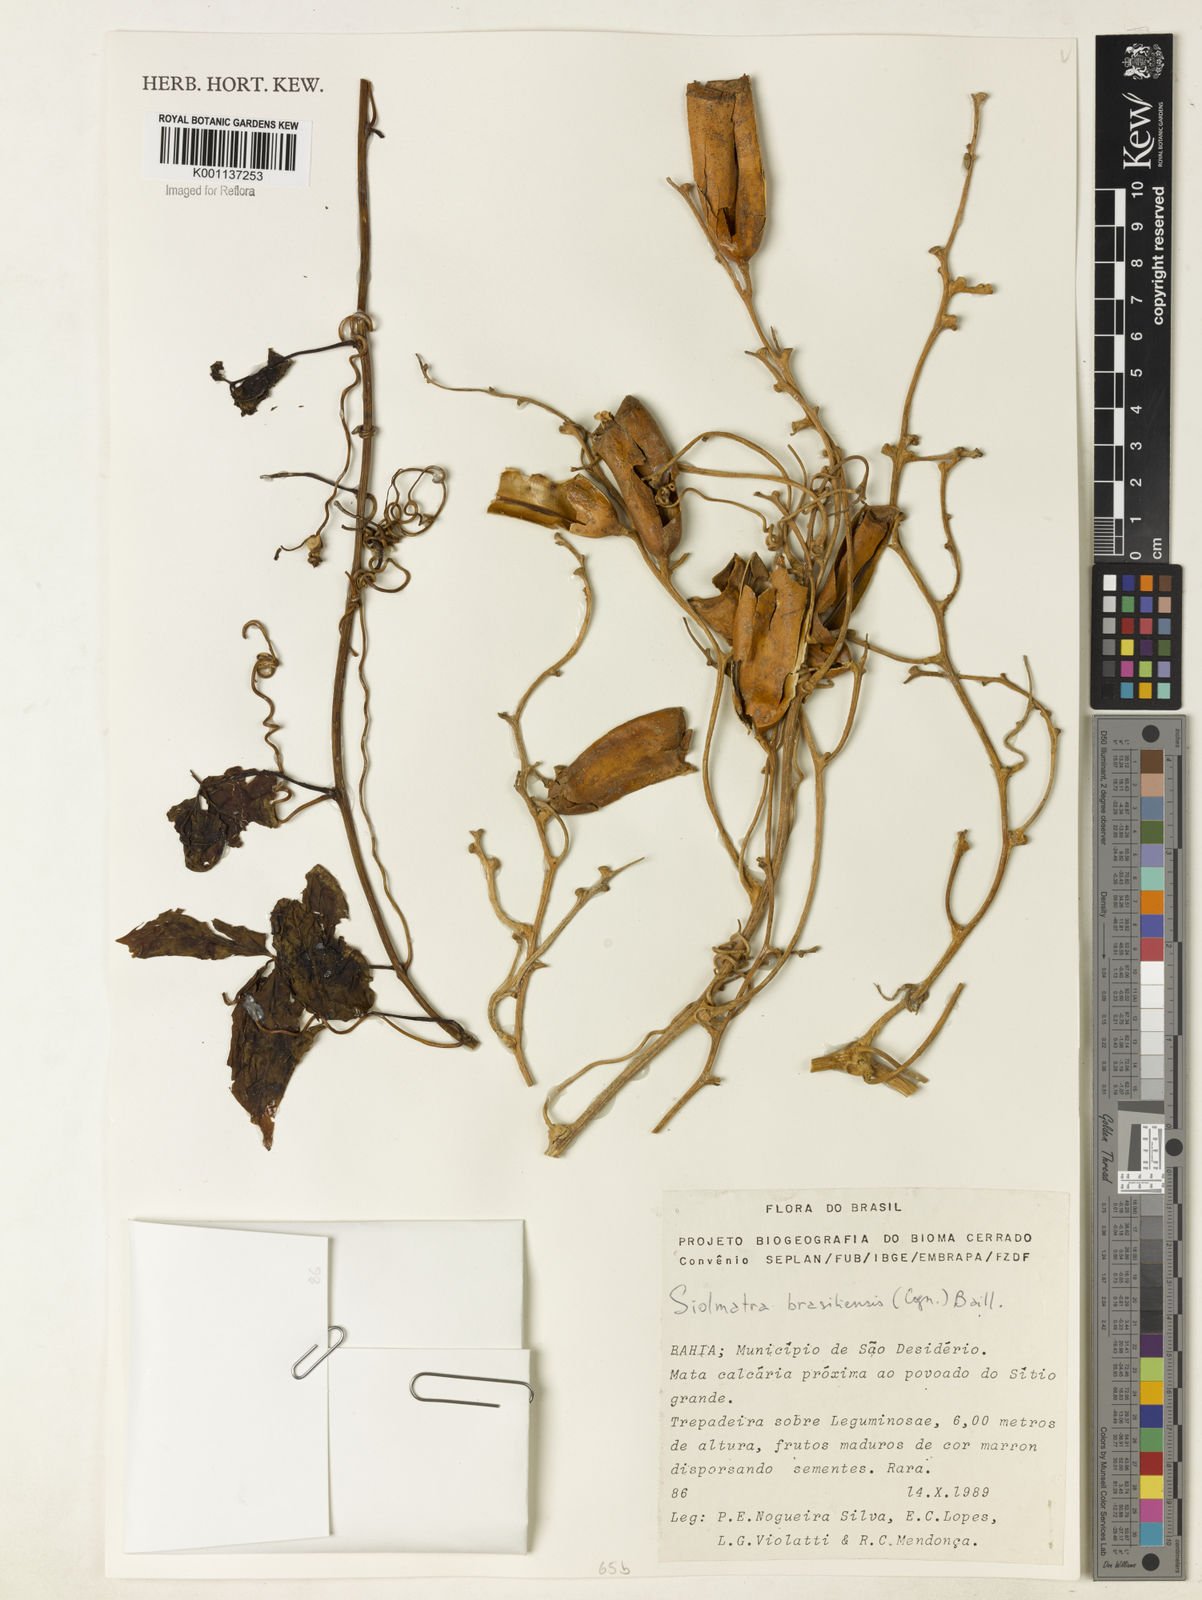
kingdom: Plantae
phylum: Tracheophyta
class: Magnoliopsida
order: Cucurbitales
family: Cucurbitaceae
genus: Siolmatra
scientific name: Siolmatra brasiliensis
